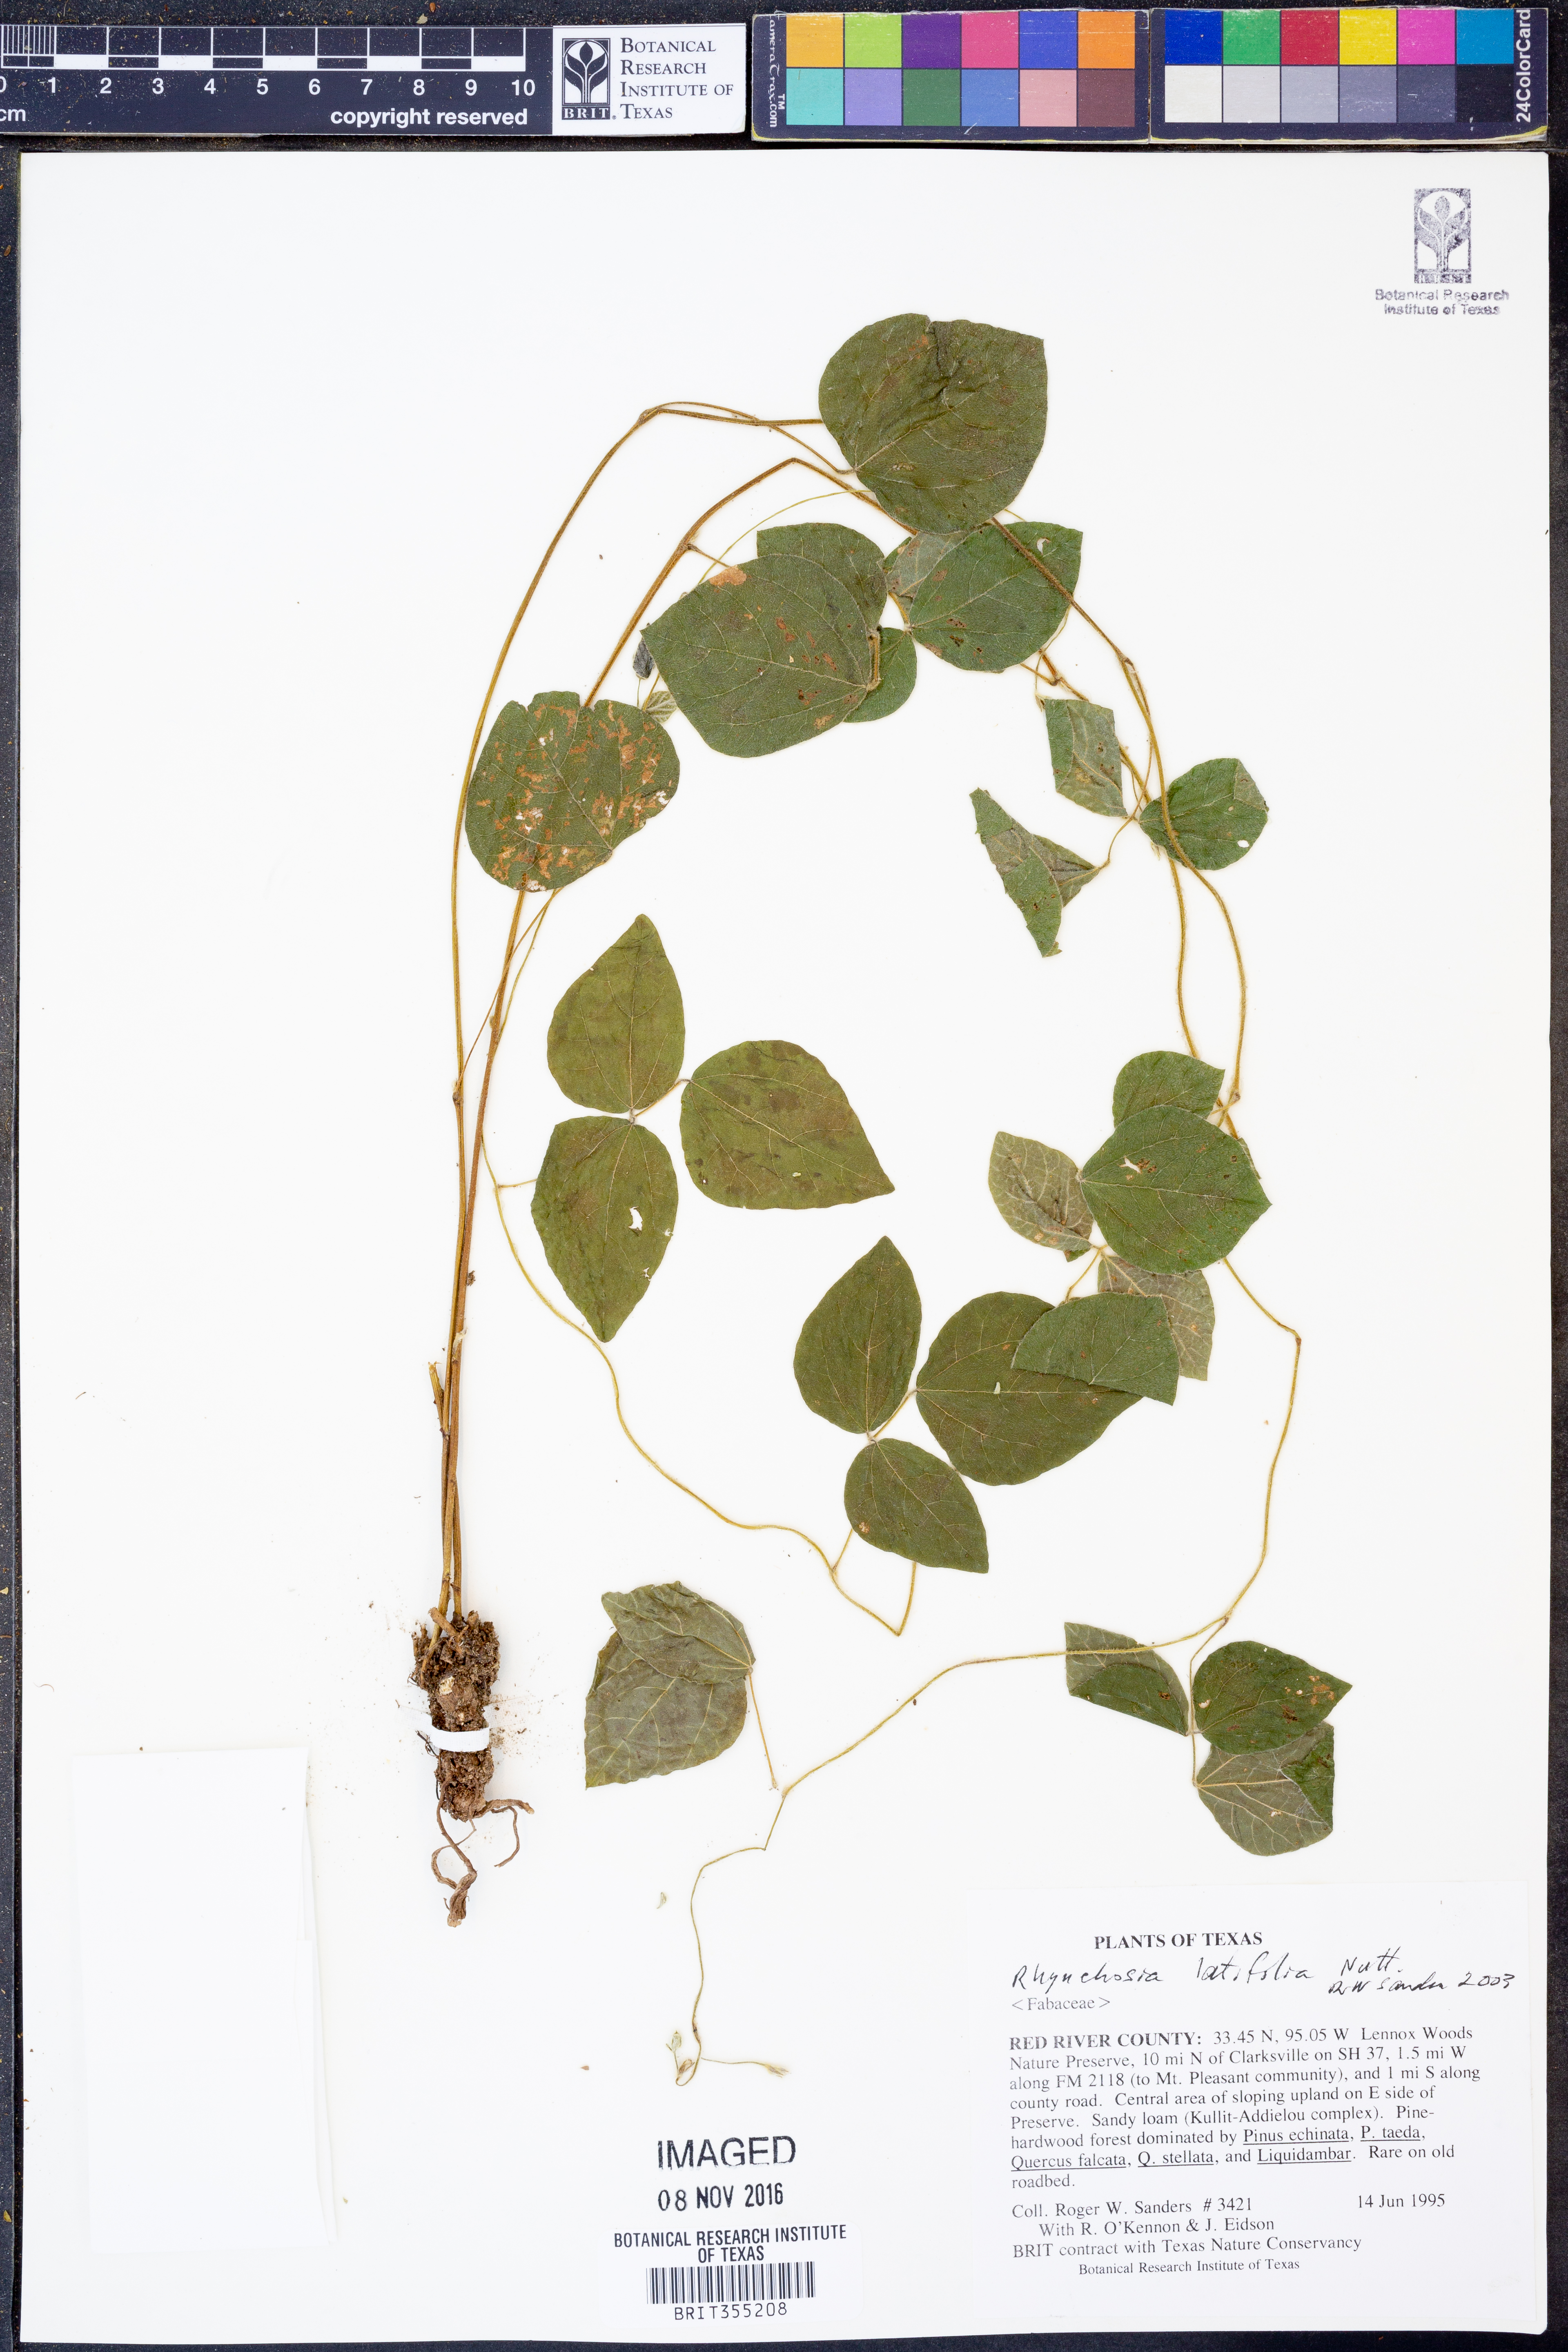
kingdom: Plantae
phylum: Tracheophyta
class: Magnoliopsida
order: Fabales
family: Fabaceae
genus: Rhynchosia
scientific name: Rhynchosia latifolia
